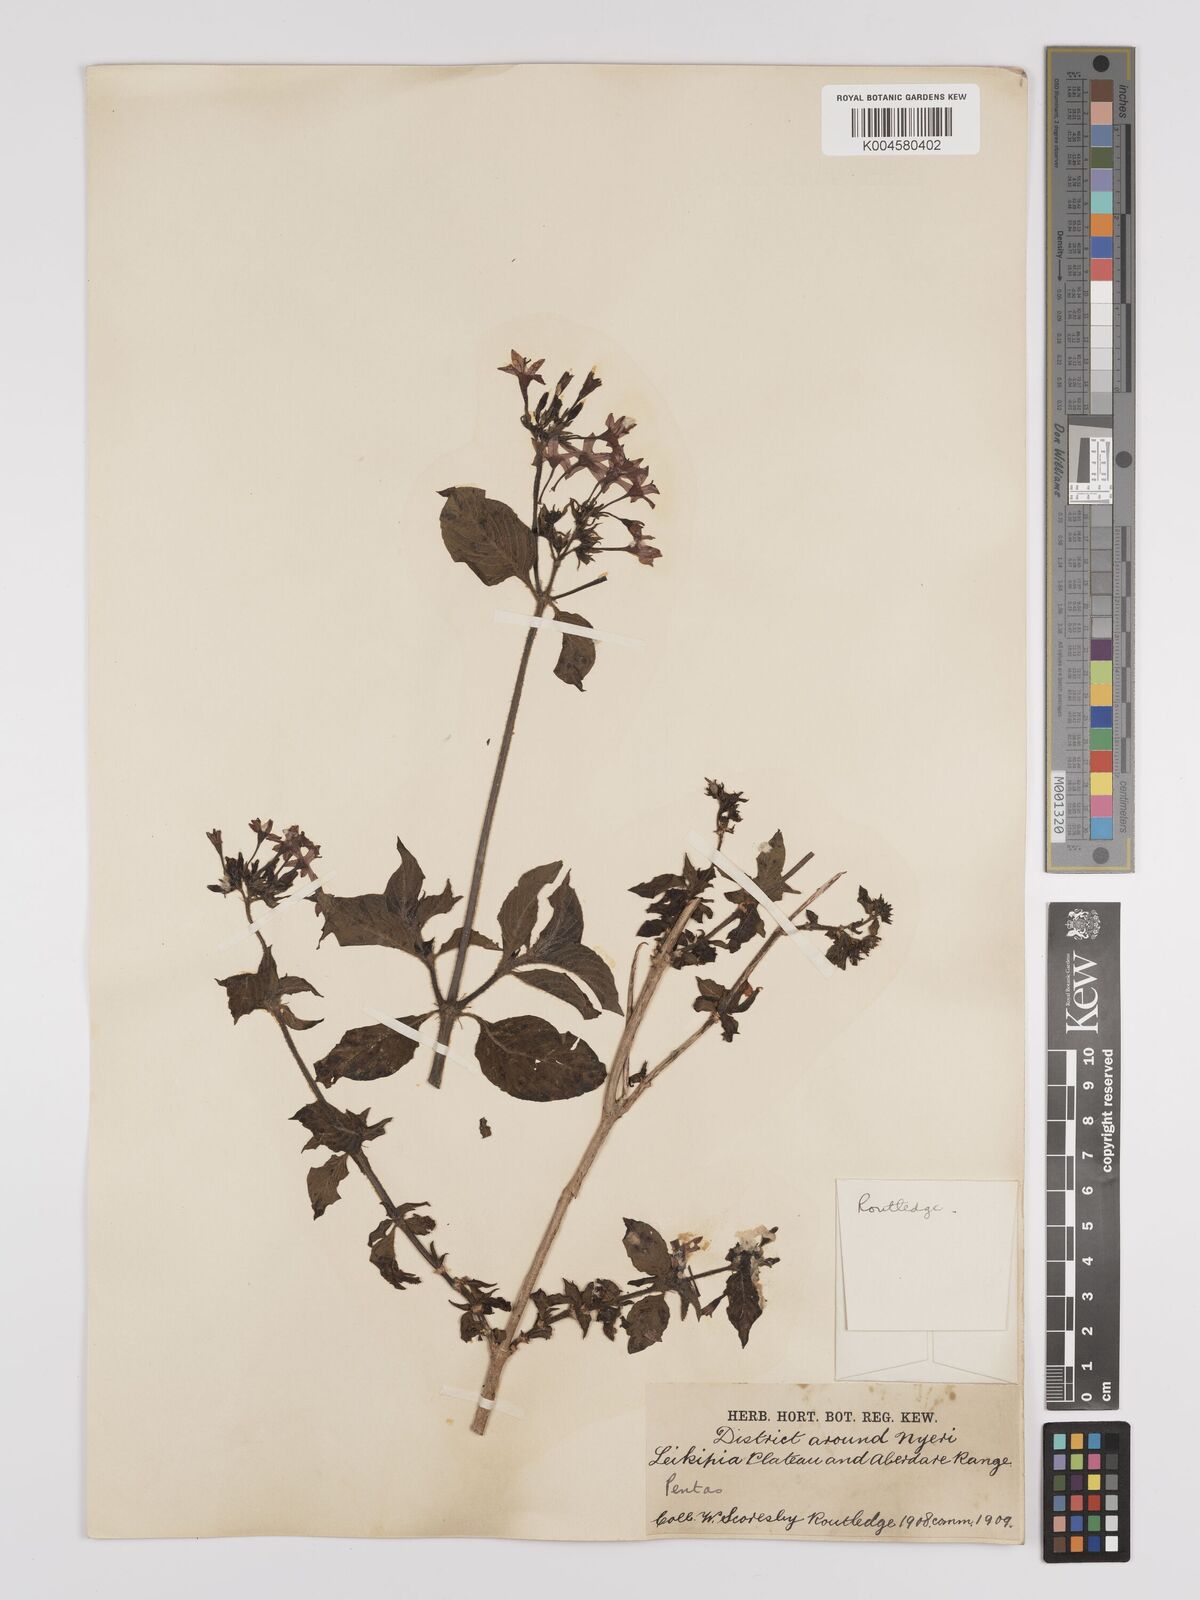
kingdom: Plantae
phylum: Tracheophyta
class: Magnoliopsida
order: Gentianales
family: Rubiaceae
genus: Pentas
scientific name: Pentas lanceolata
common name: Egyptian starcluster
